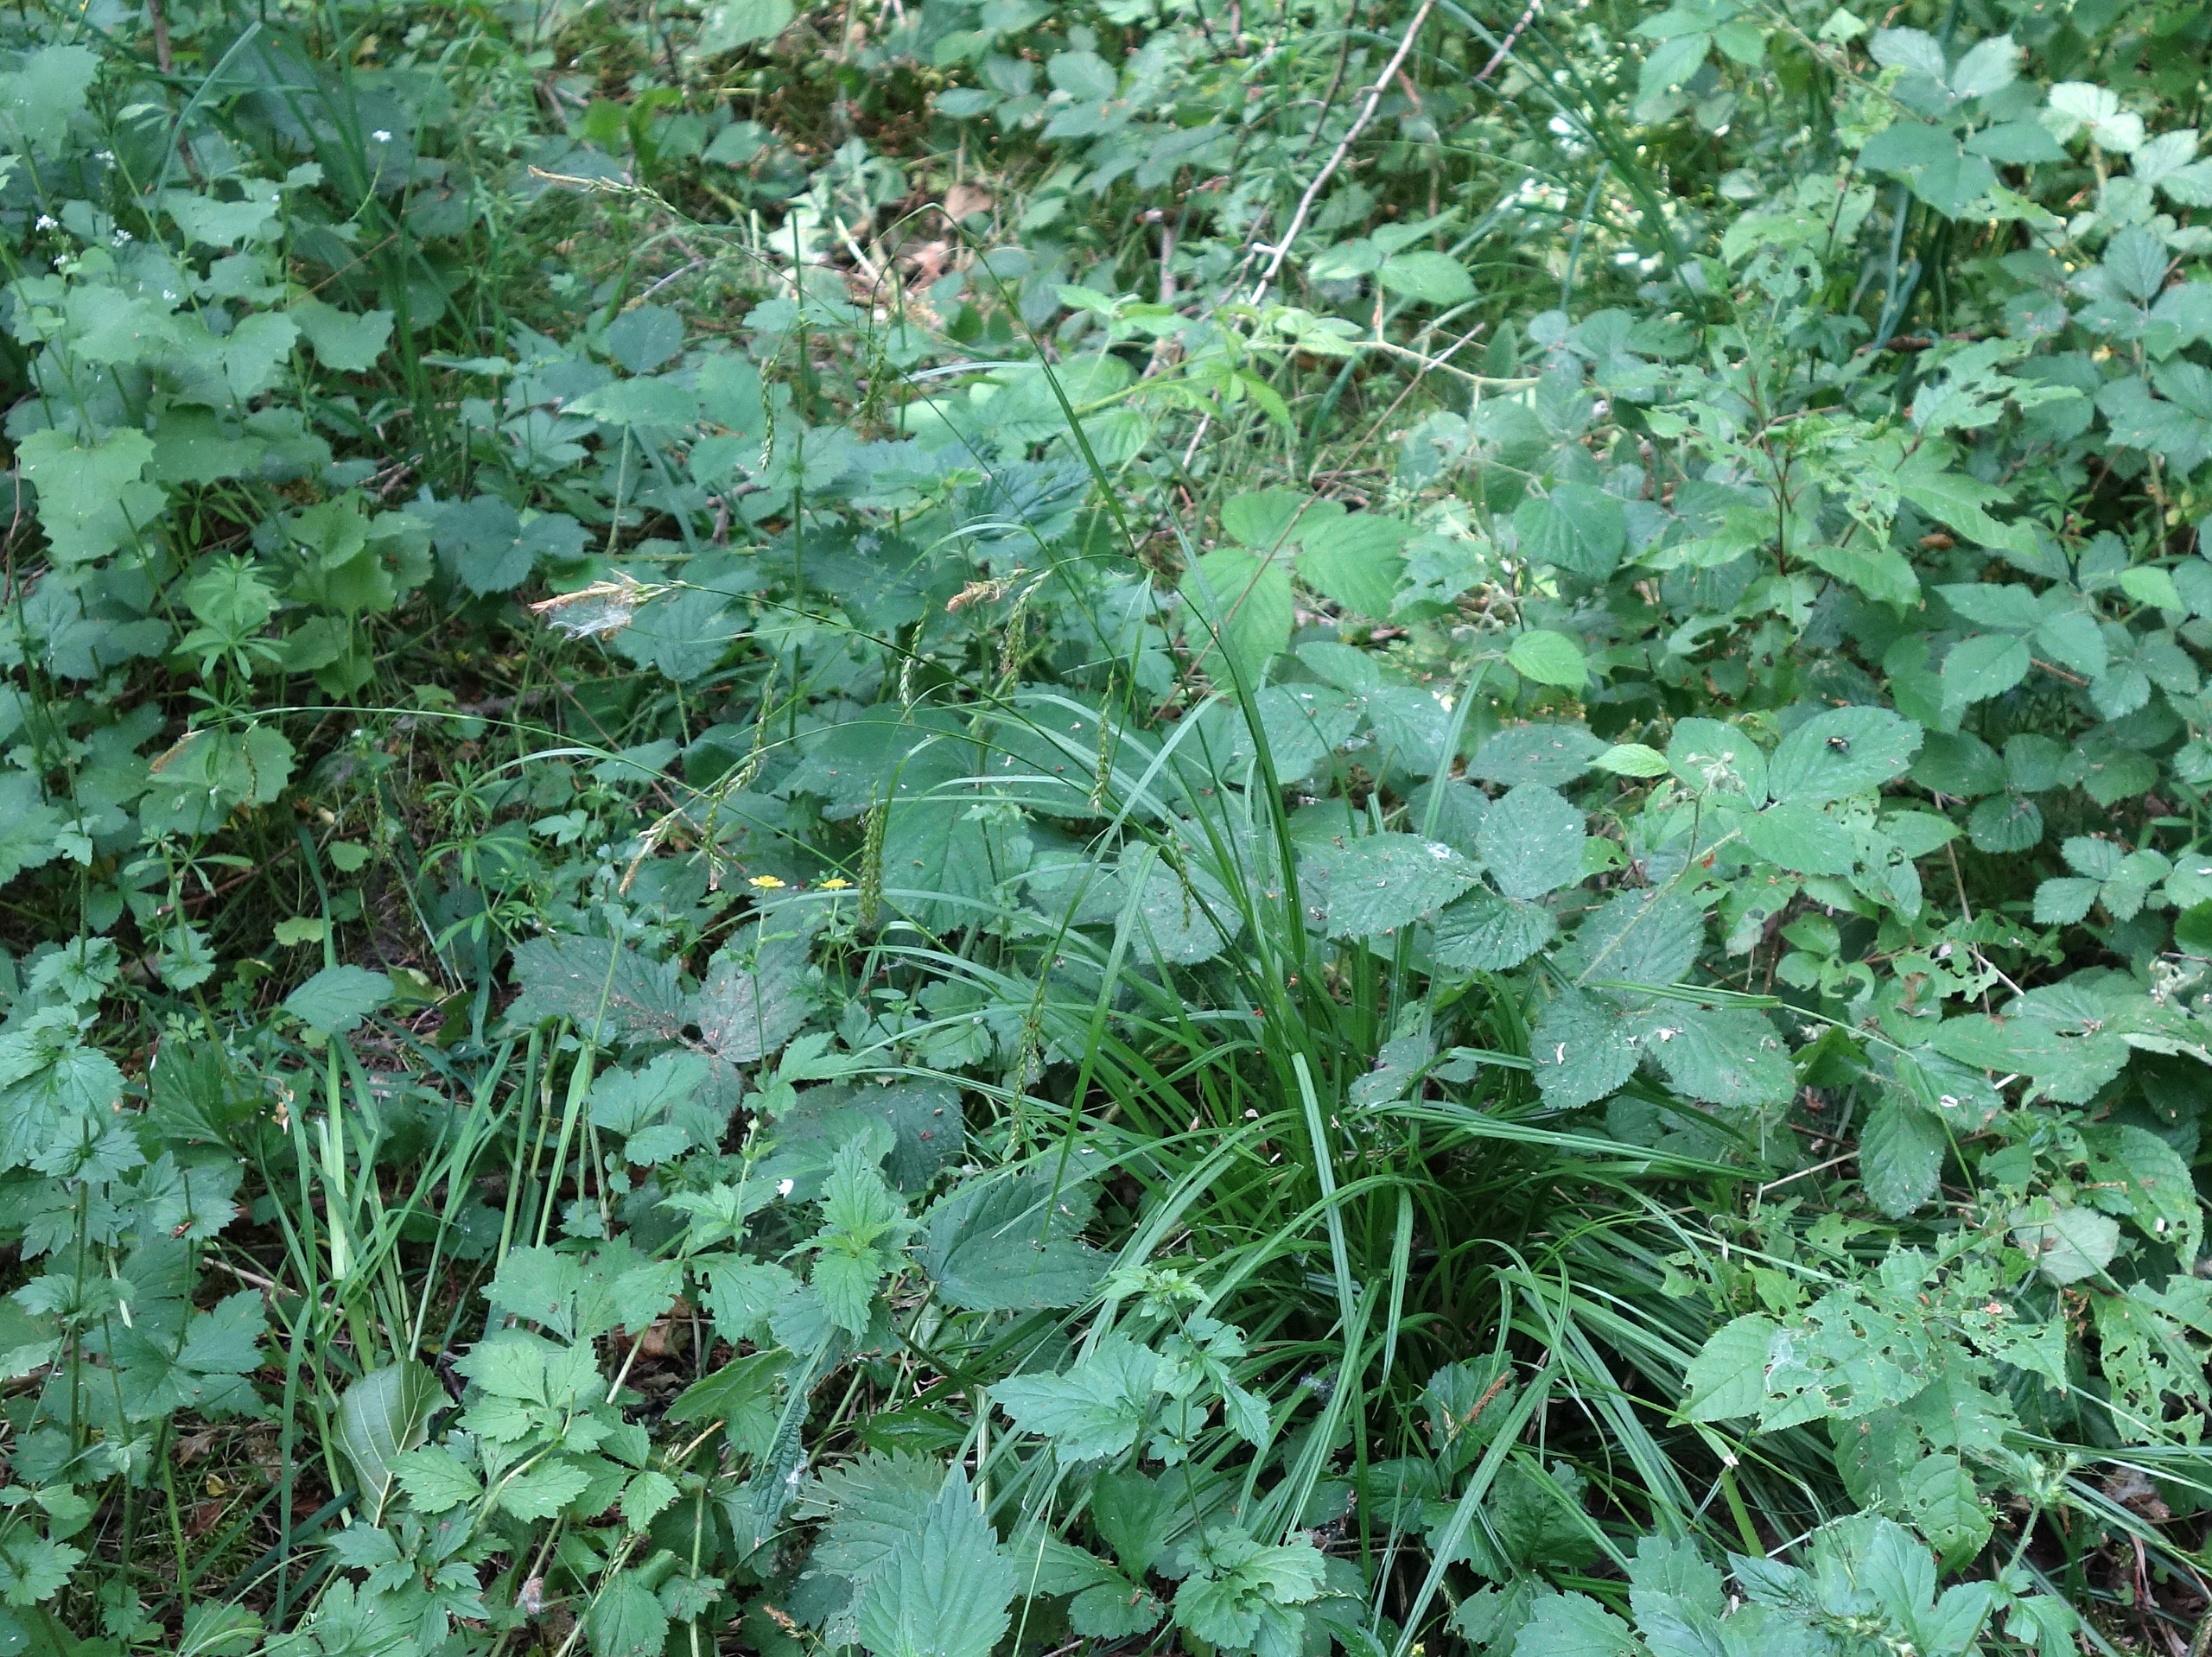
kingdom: Plantae
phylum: Tracheophyta
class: Liliopsida
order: Poales
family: Cyperaceae
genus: Carex
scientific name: Carex sylvatica
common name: Skov-star
